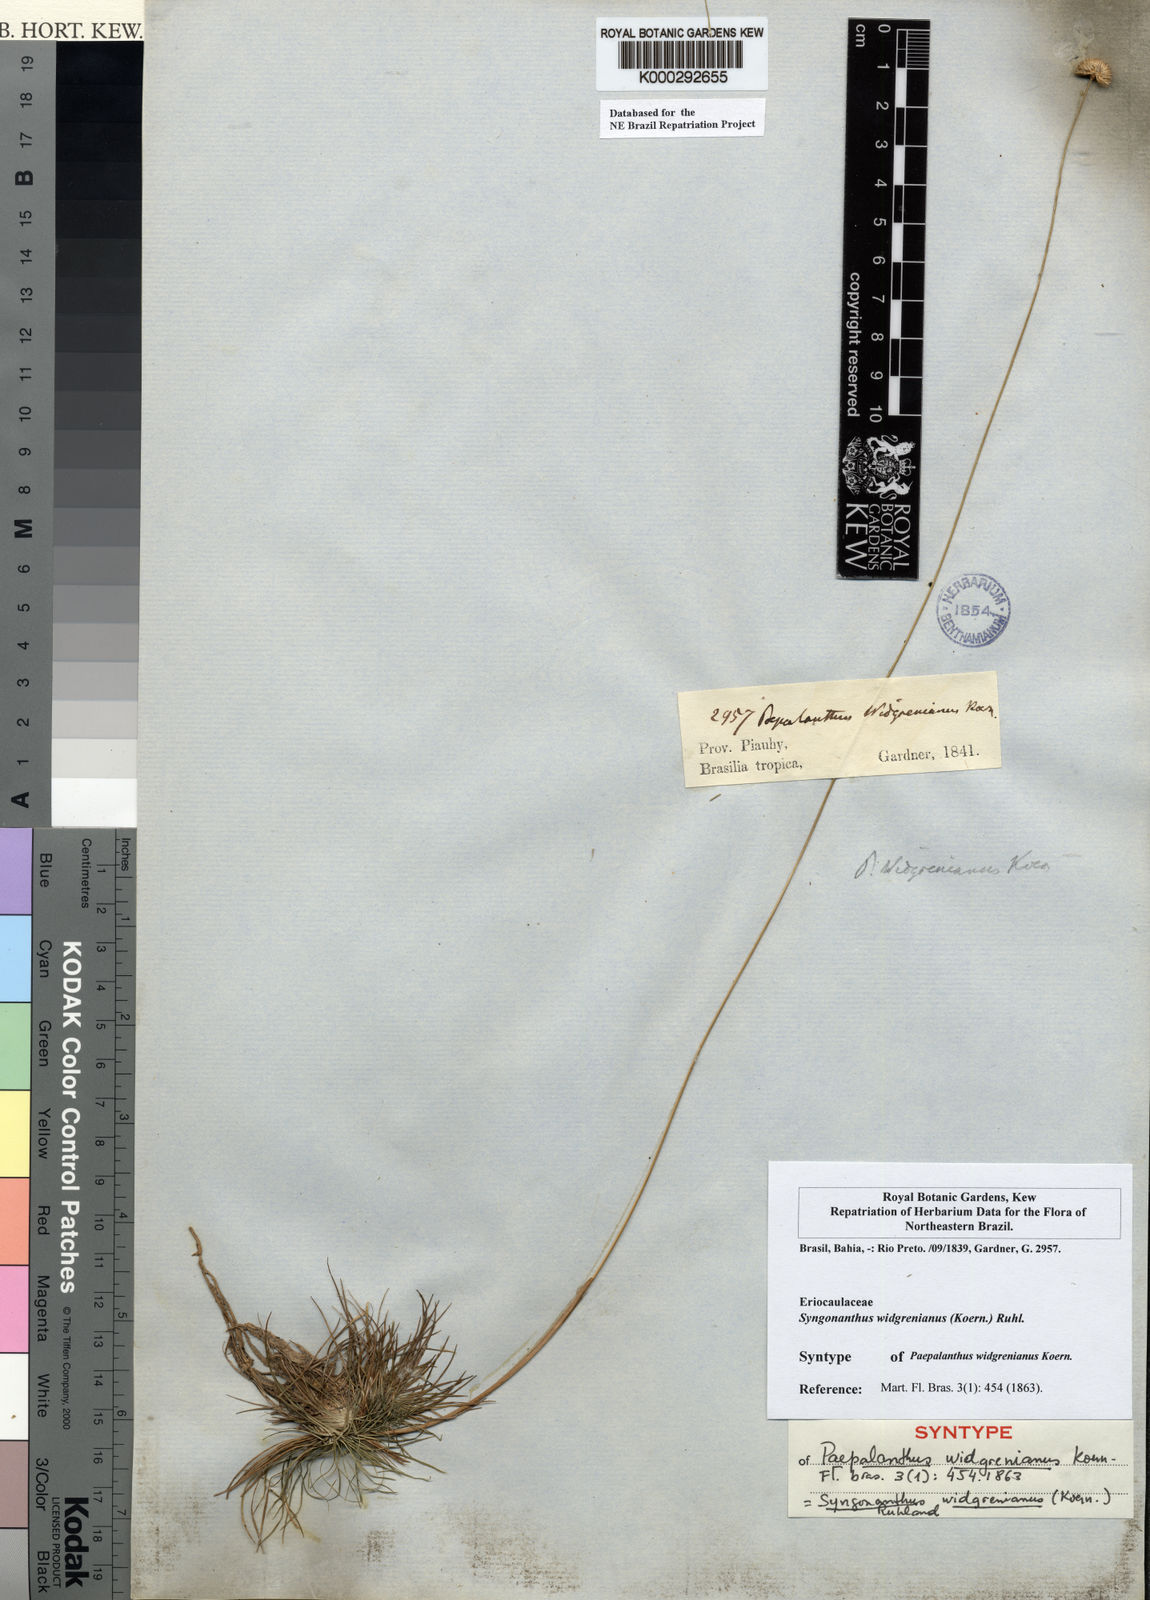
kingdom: Plantae
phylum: Tracheophyta
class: Liliopsida
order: Poales
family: Eriocaulaceae
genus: Syngonanthus
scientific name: Syngonanthus widgrenianus
